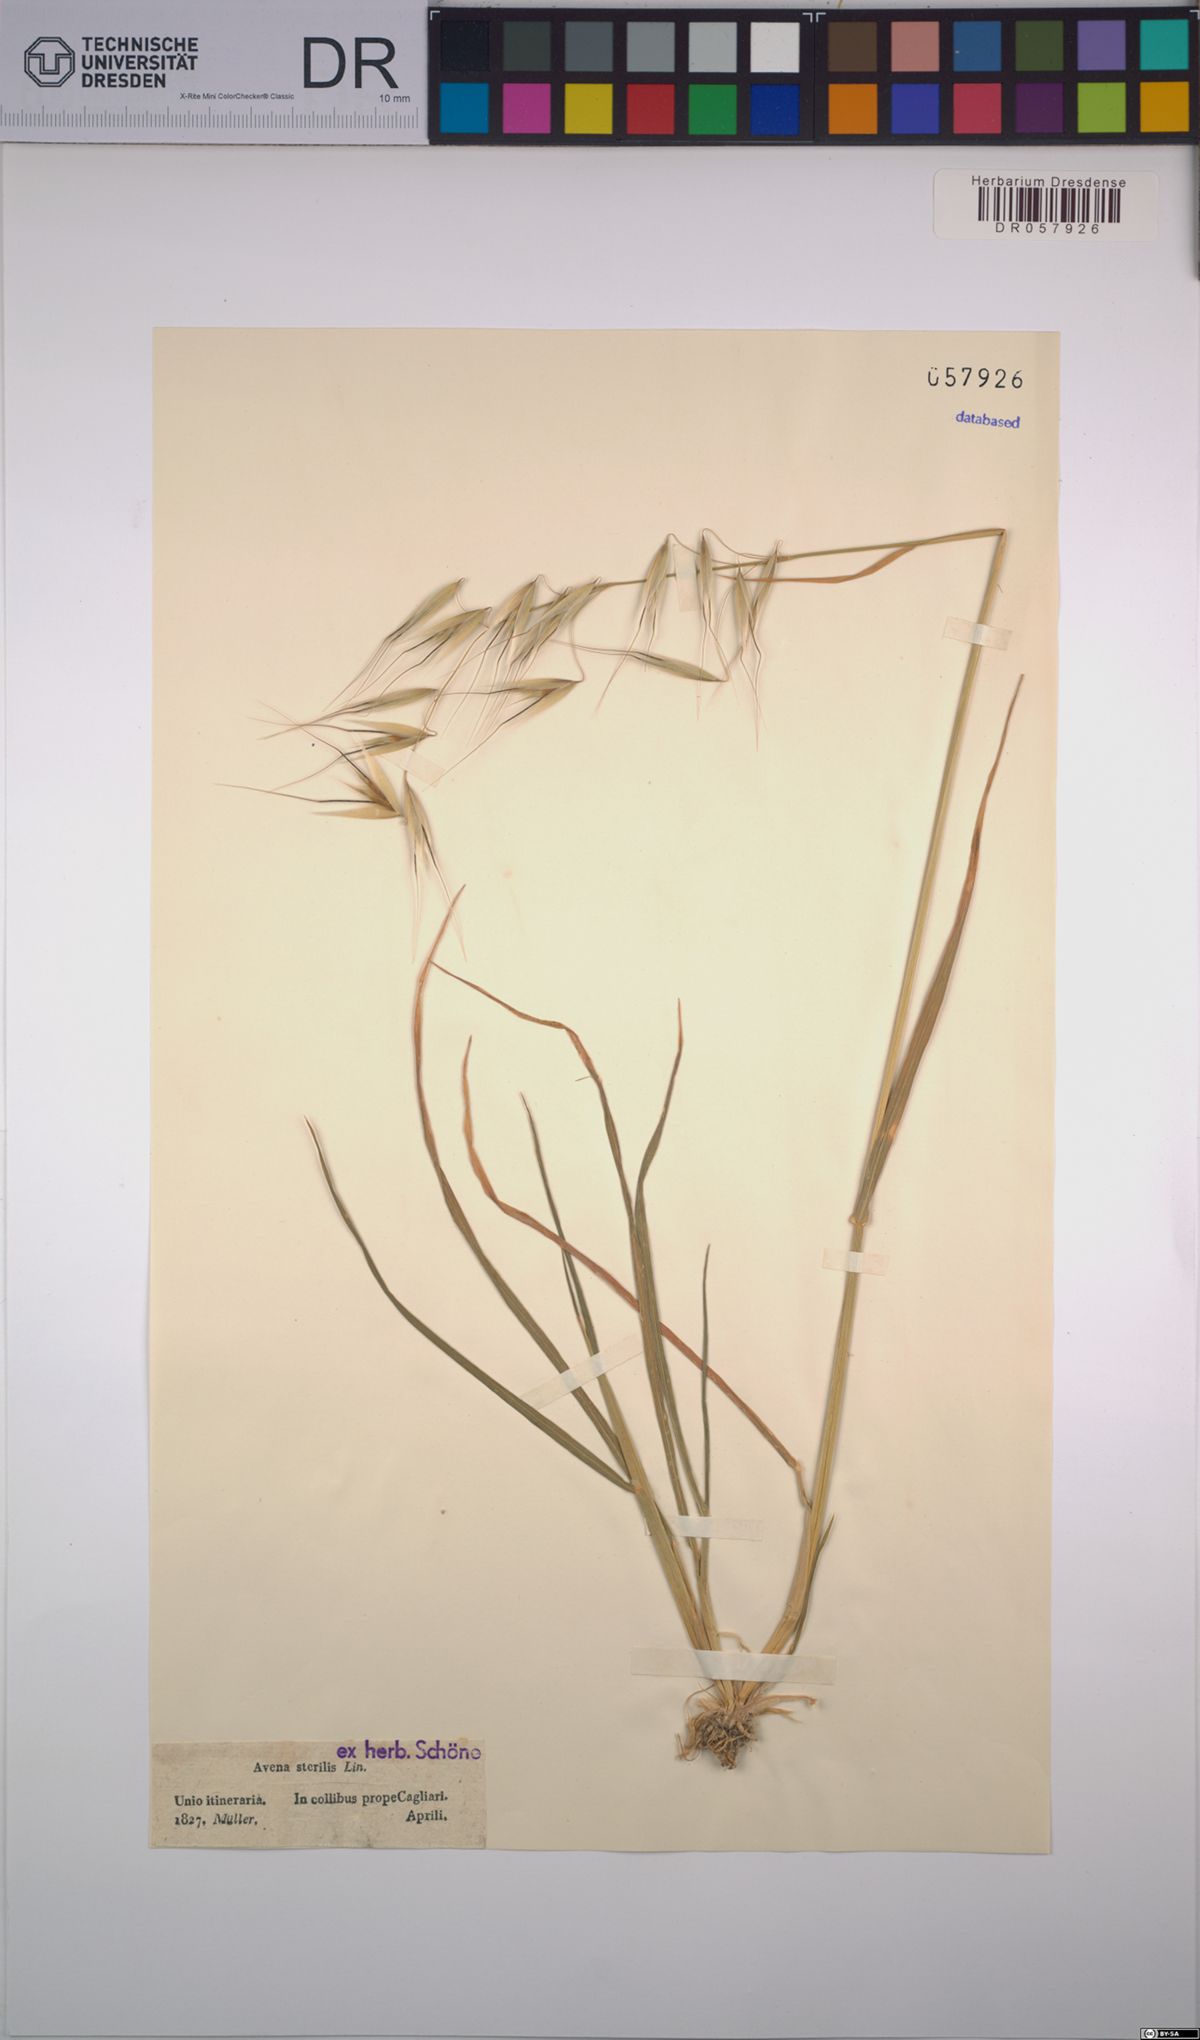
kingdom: Plantae
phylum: Tracheophyta
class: Liliopsida
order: Poales
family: Poaceae
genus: Avena
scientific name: Avena sterilis
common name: Animated oat
